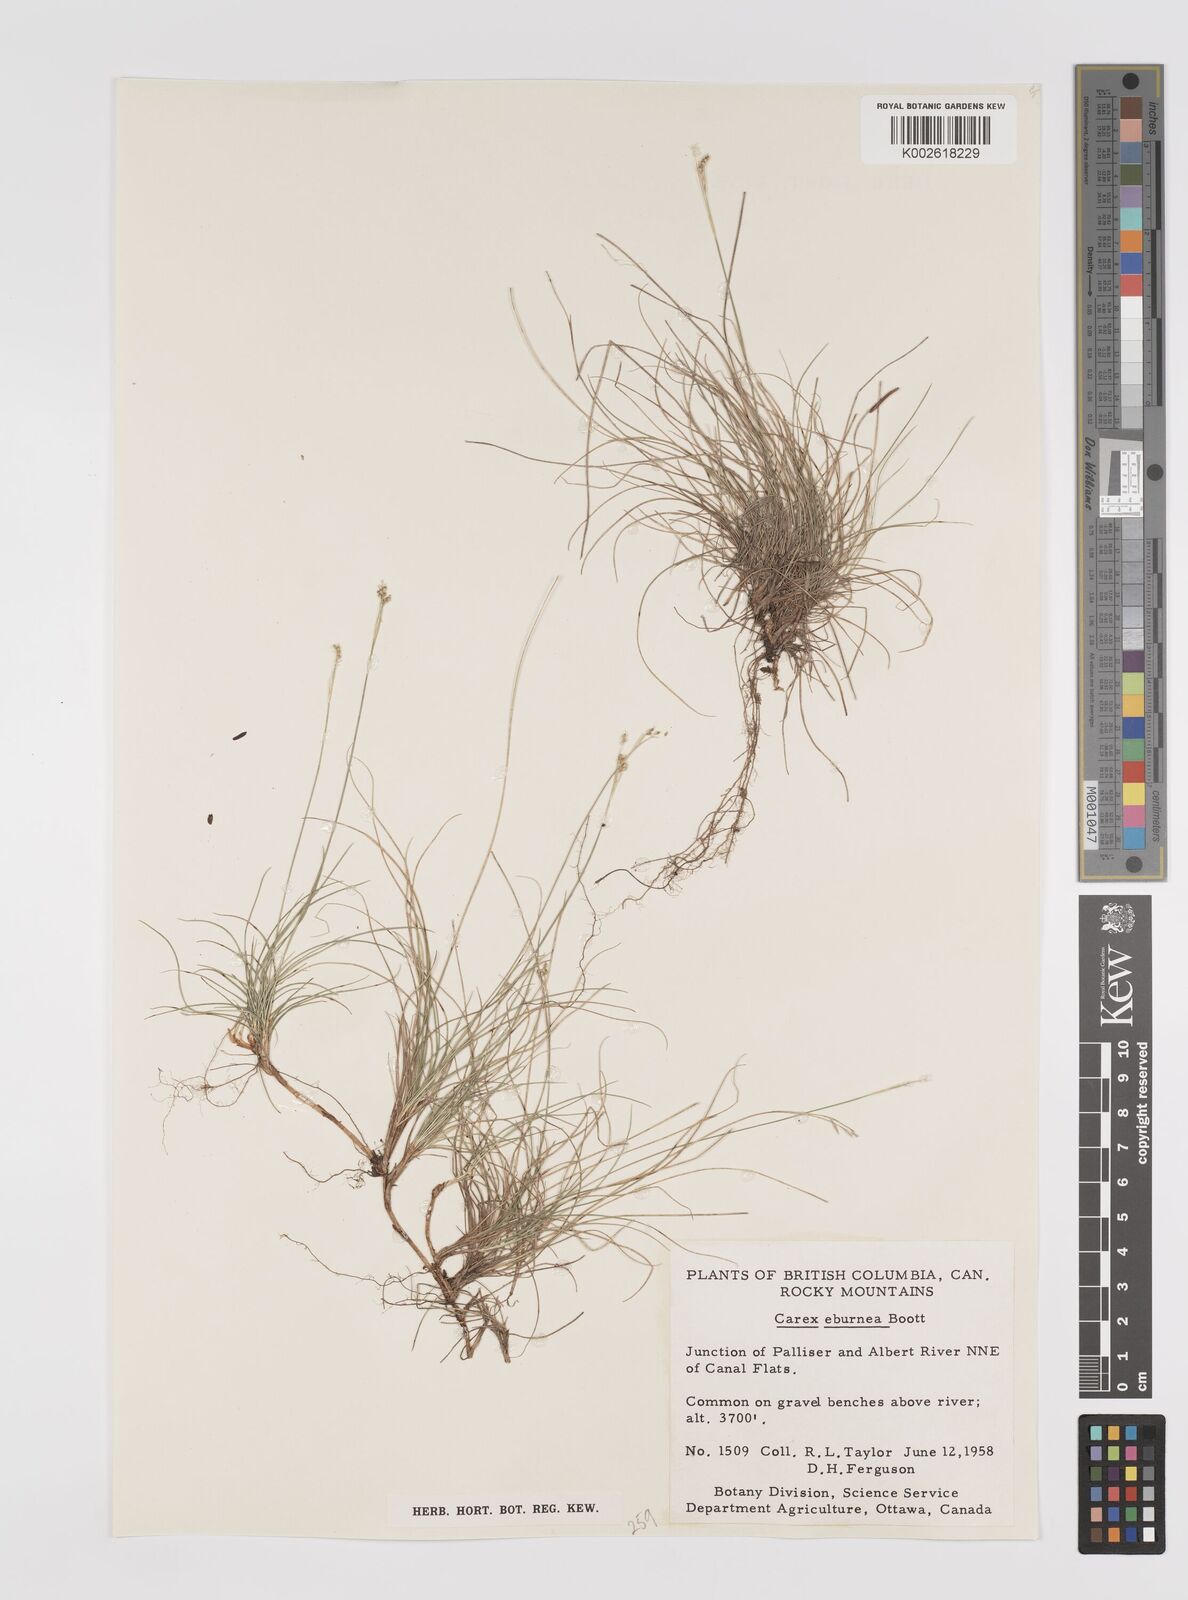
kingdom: Plantae
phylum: Tracheophyta
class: Liliopsida
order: Poales
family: Cyperaceae
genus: Carex
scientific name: Carex eburnea
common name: Bristle-leaved sedge
